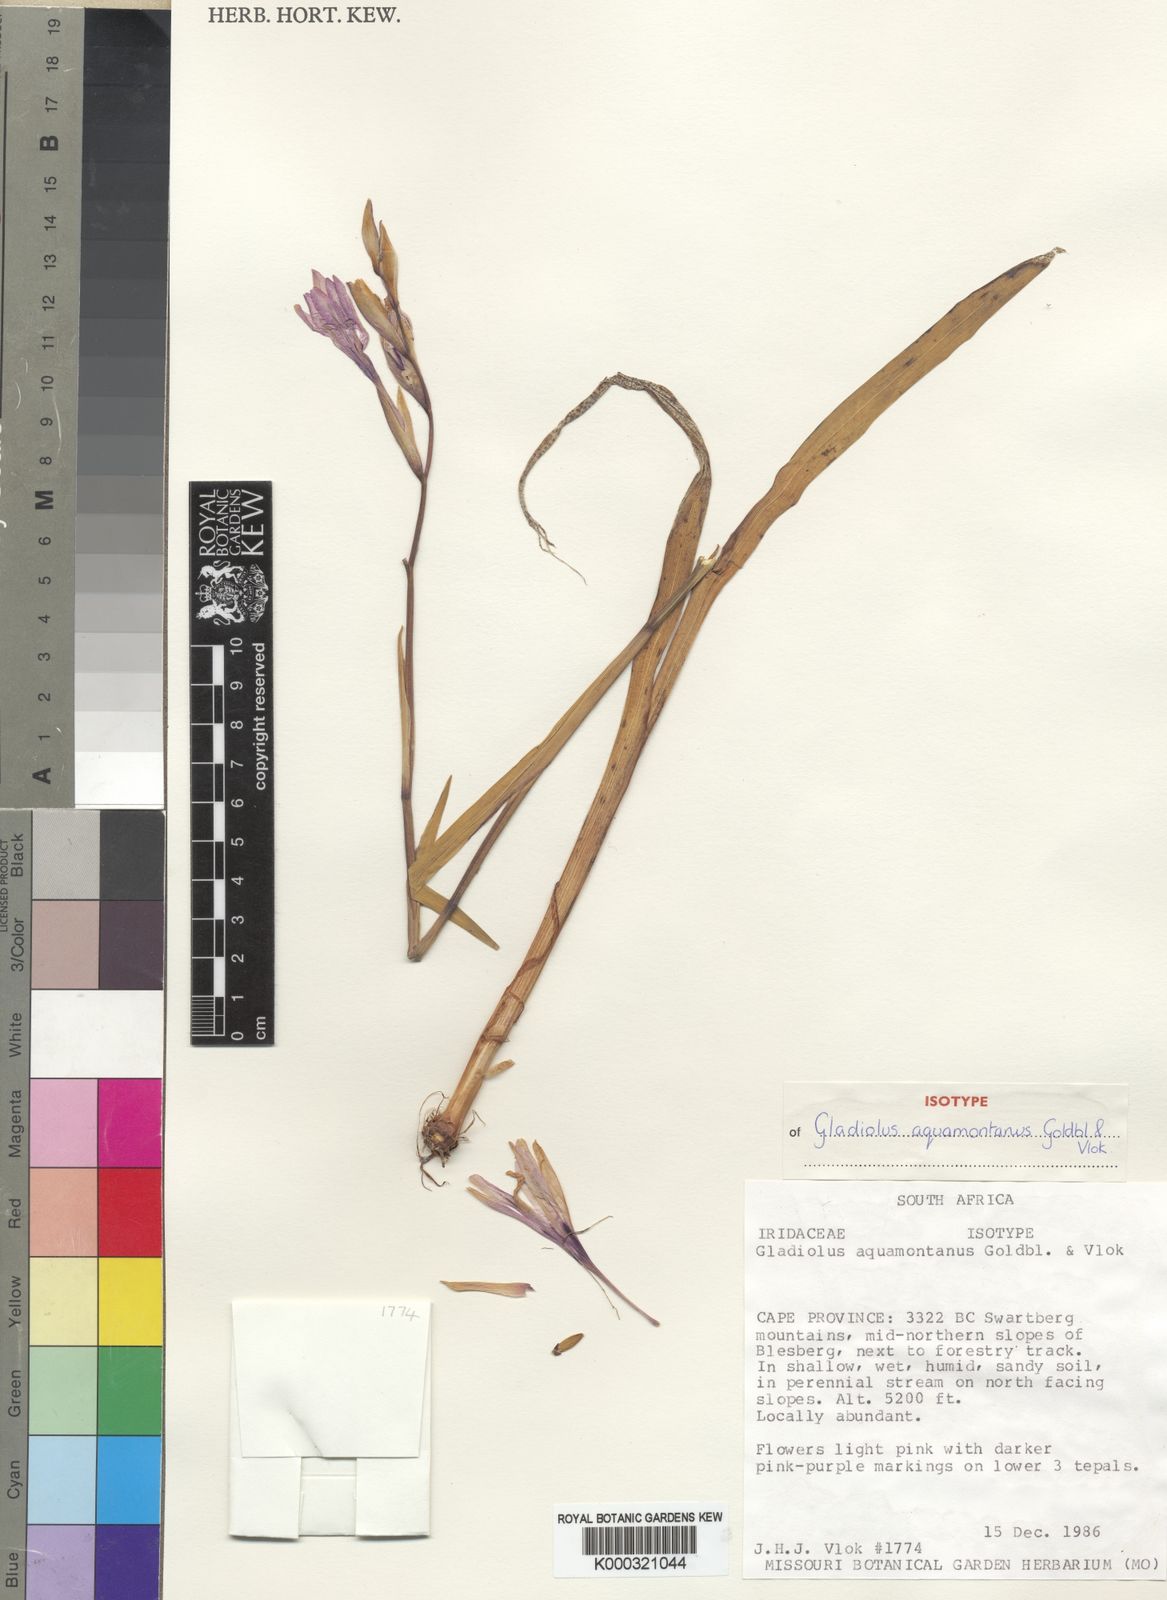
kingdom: Plantae
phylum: Tracheophyta
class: Liliopsida
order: Asparagales
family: Iridaceae
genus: Gladiolus
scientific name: Gladiolus aquamontanus
